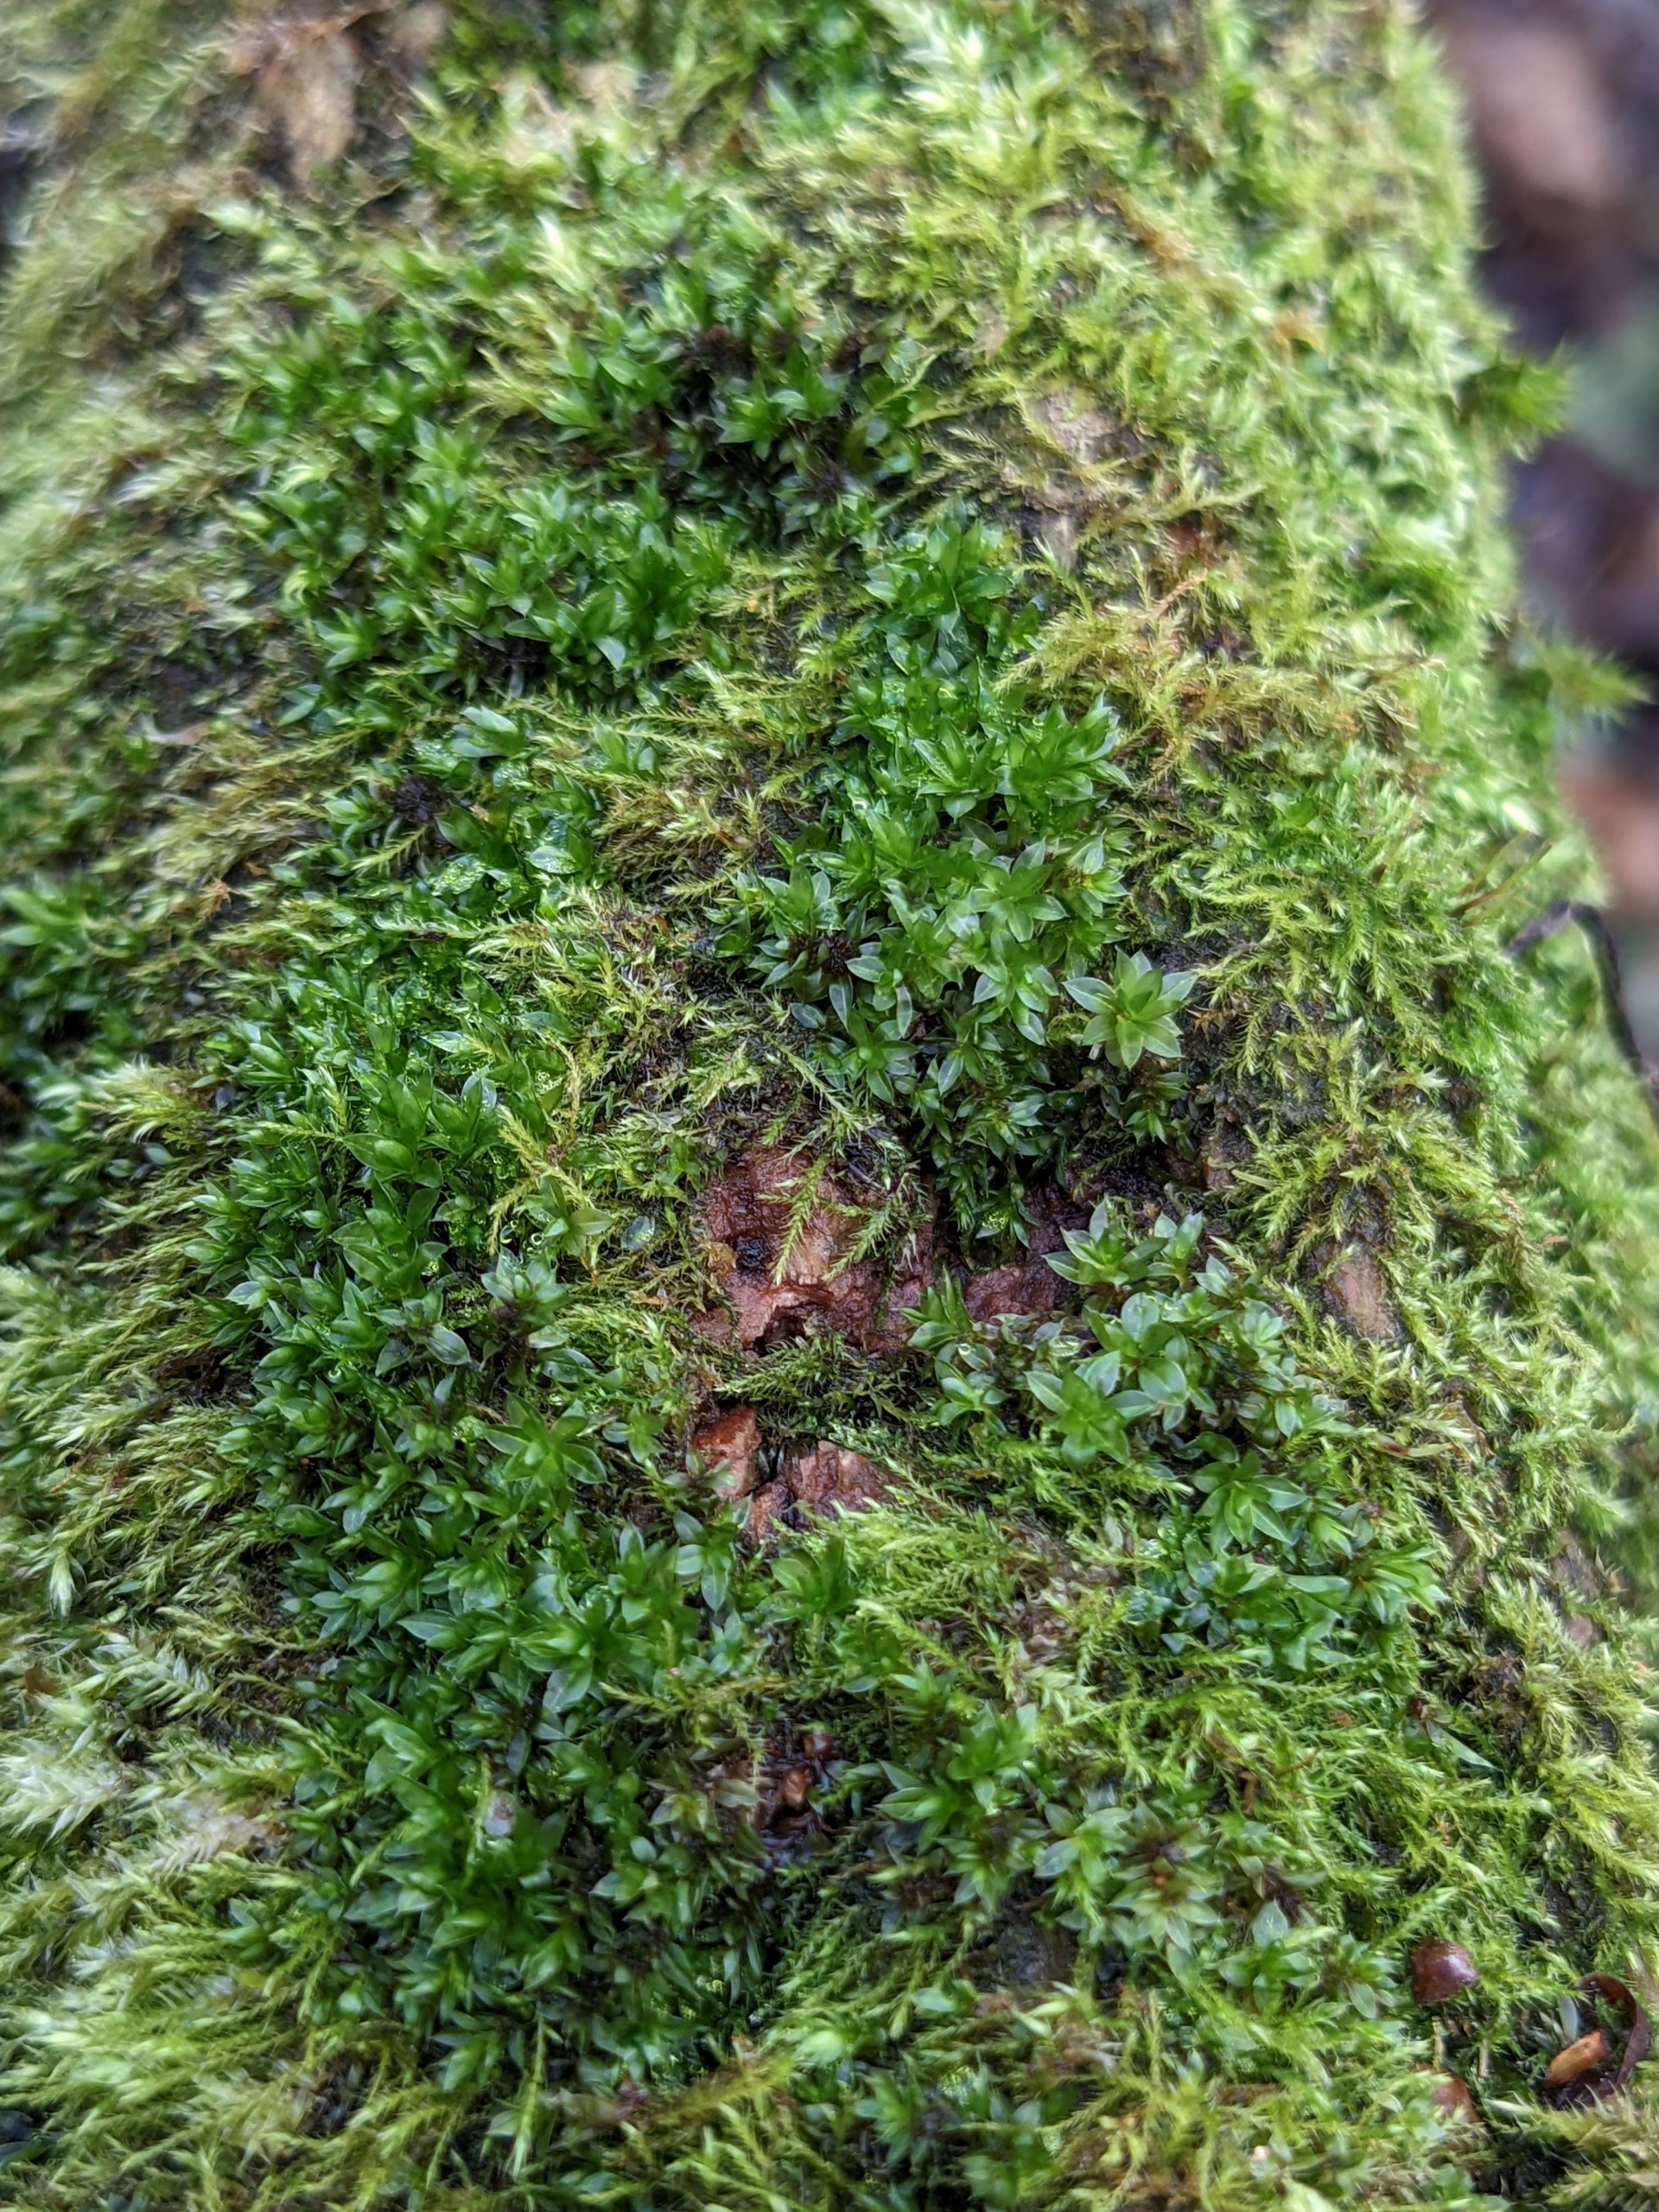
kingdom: Plantae
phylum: Bryophyta
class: Bryopsida
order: Bryales
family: Bryaceae
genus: Rosulabryum
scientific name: Rosulabryum moravicum
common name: Bark-bryum
